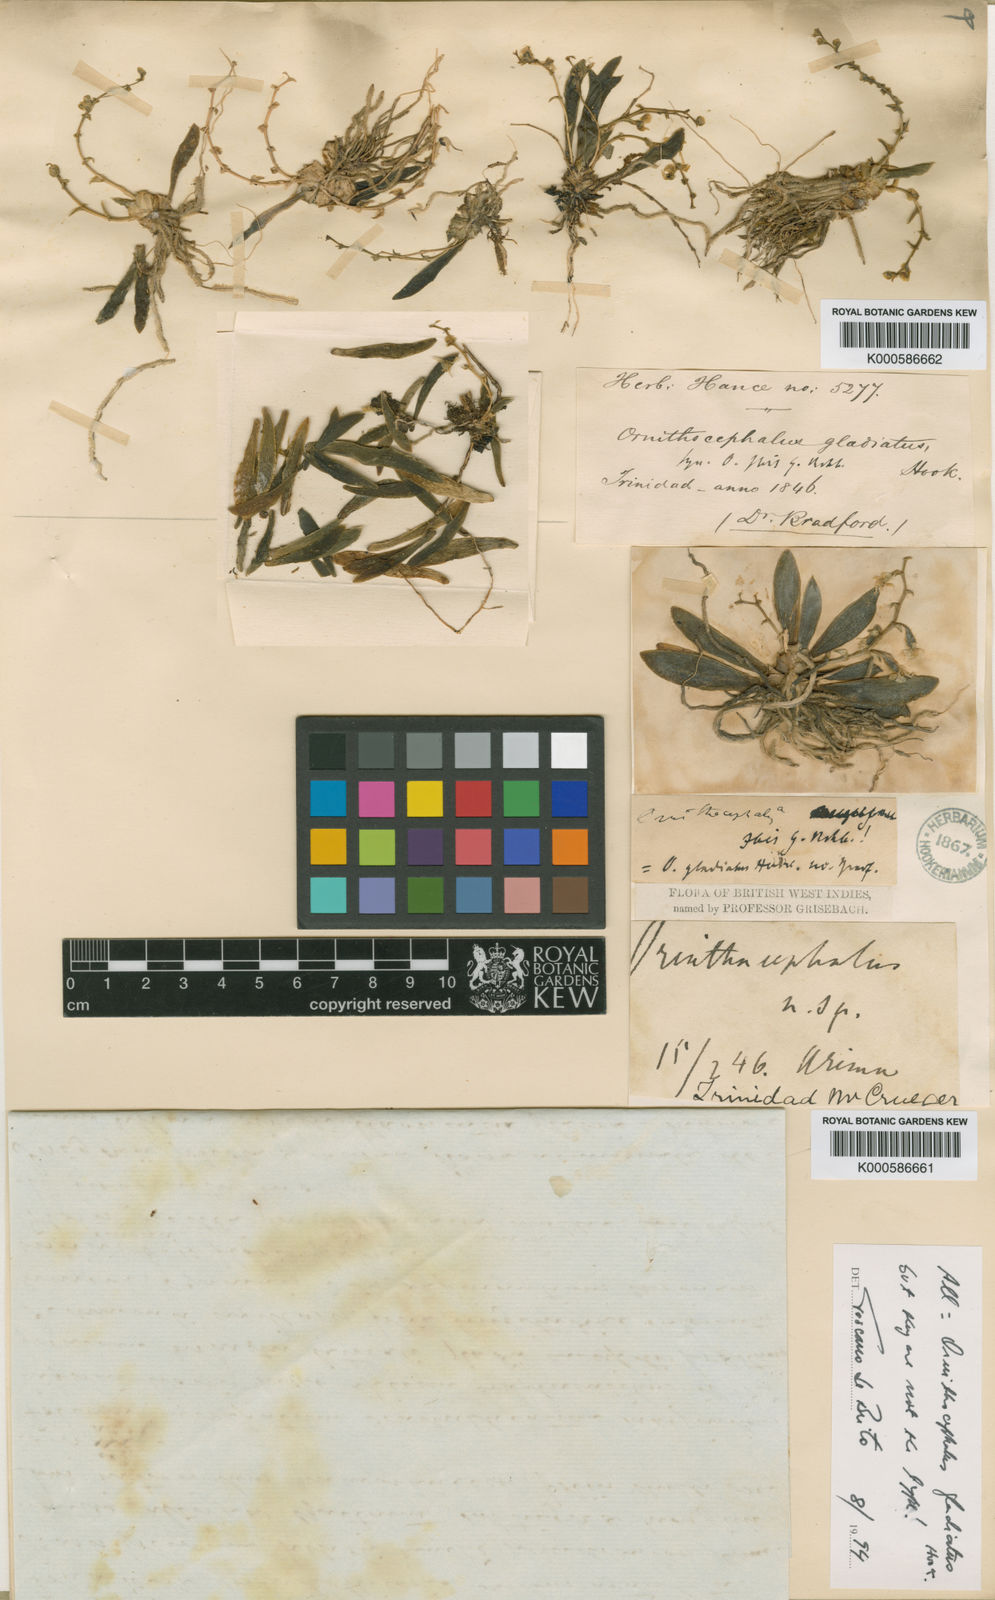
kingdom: Plantae
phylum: Tracheophyta
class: Liliopsida
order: Asparagales
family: Orchidaceae
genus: Ornithocephalus
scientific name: Ornithocephalus gladiatus
